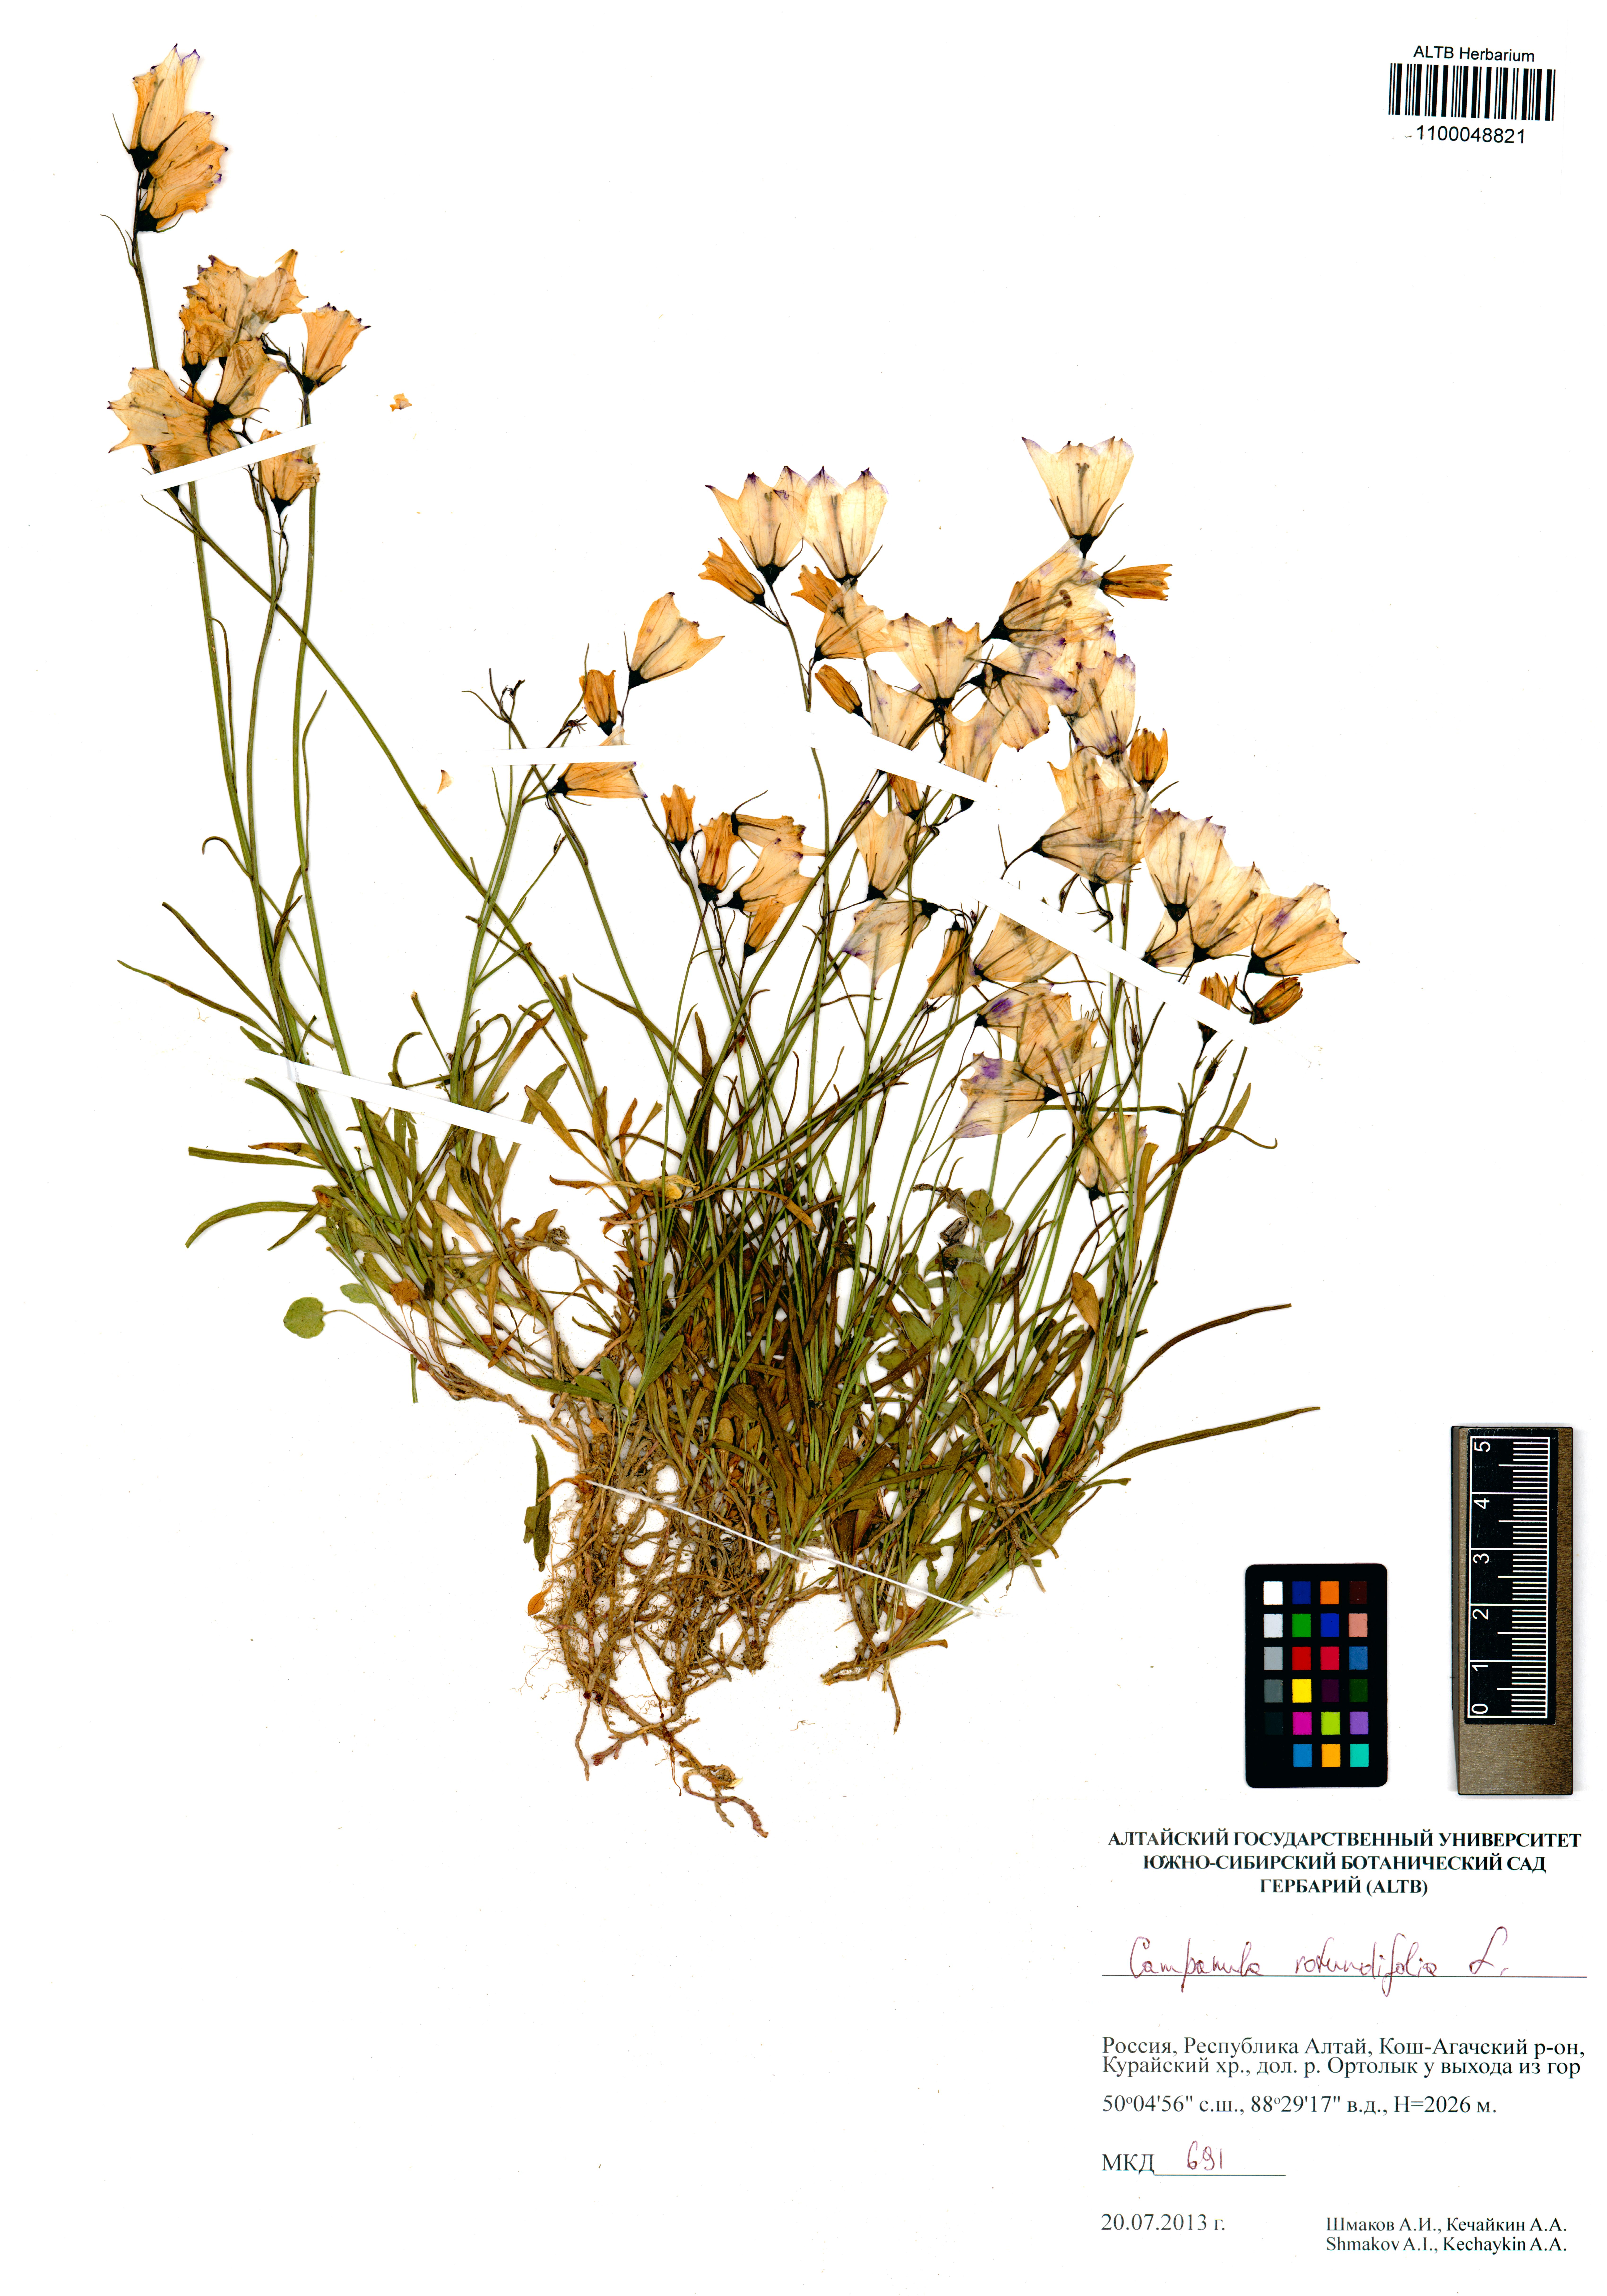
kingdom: Plantae
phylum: Tracheophyta
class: Magnoliopsida
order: Asterales
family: Campanulaceae
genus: Campanula
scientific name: Campanula rotundifolia
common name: Harebell
